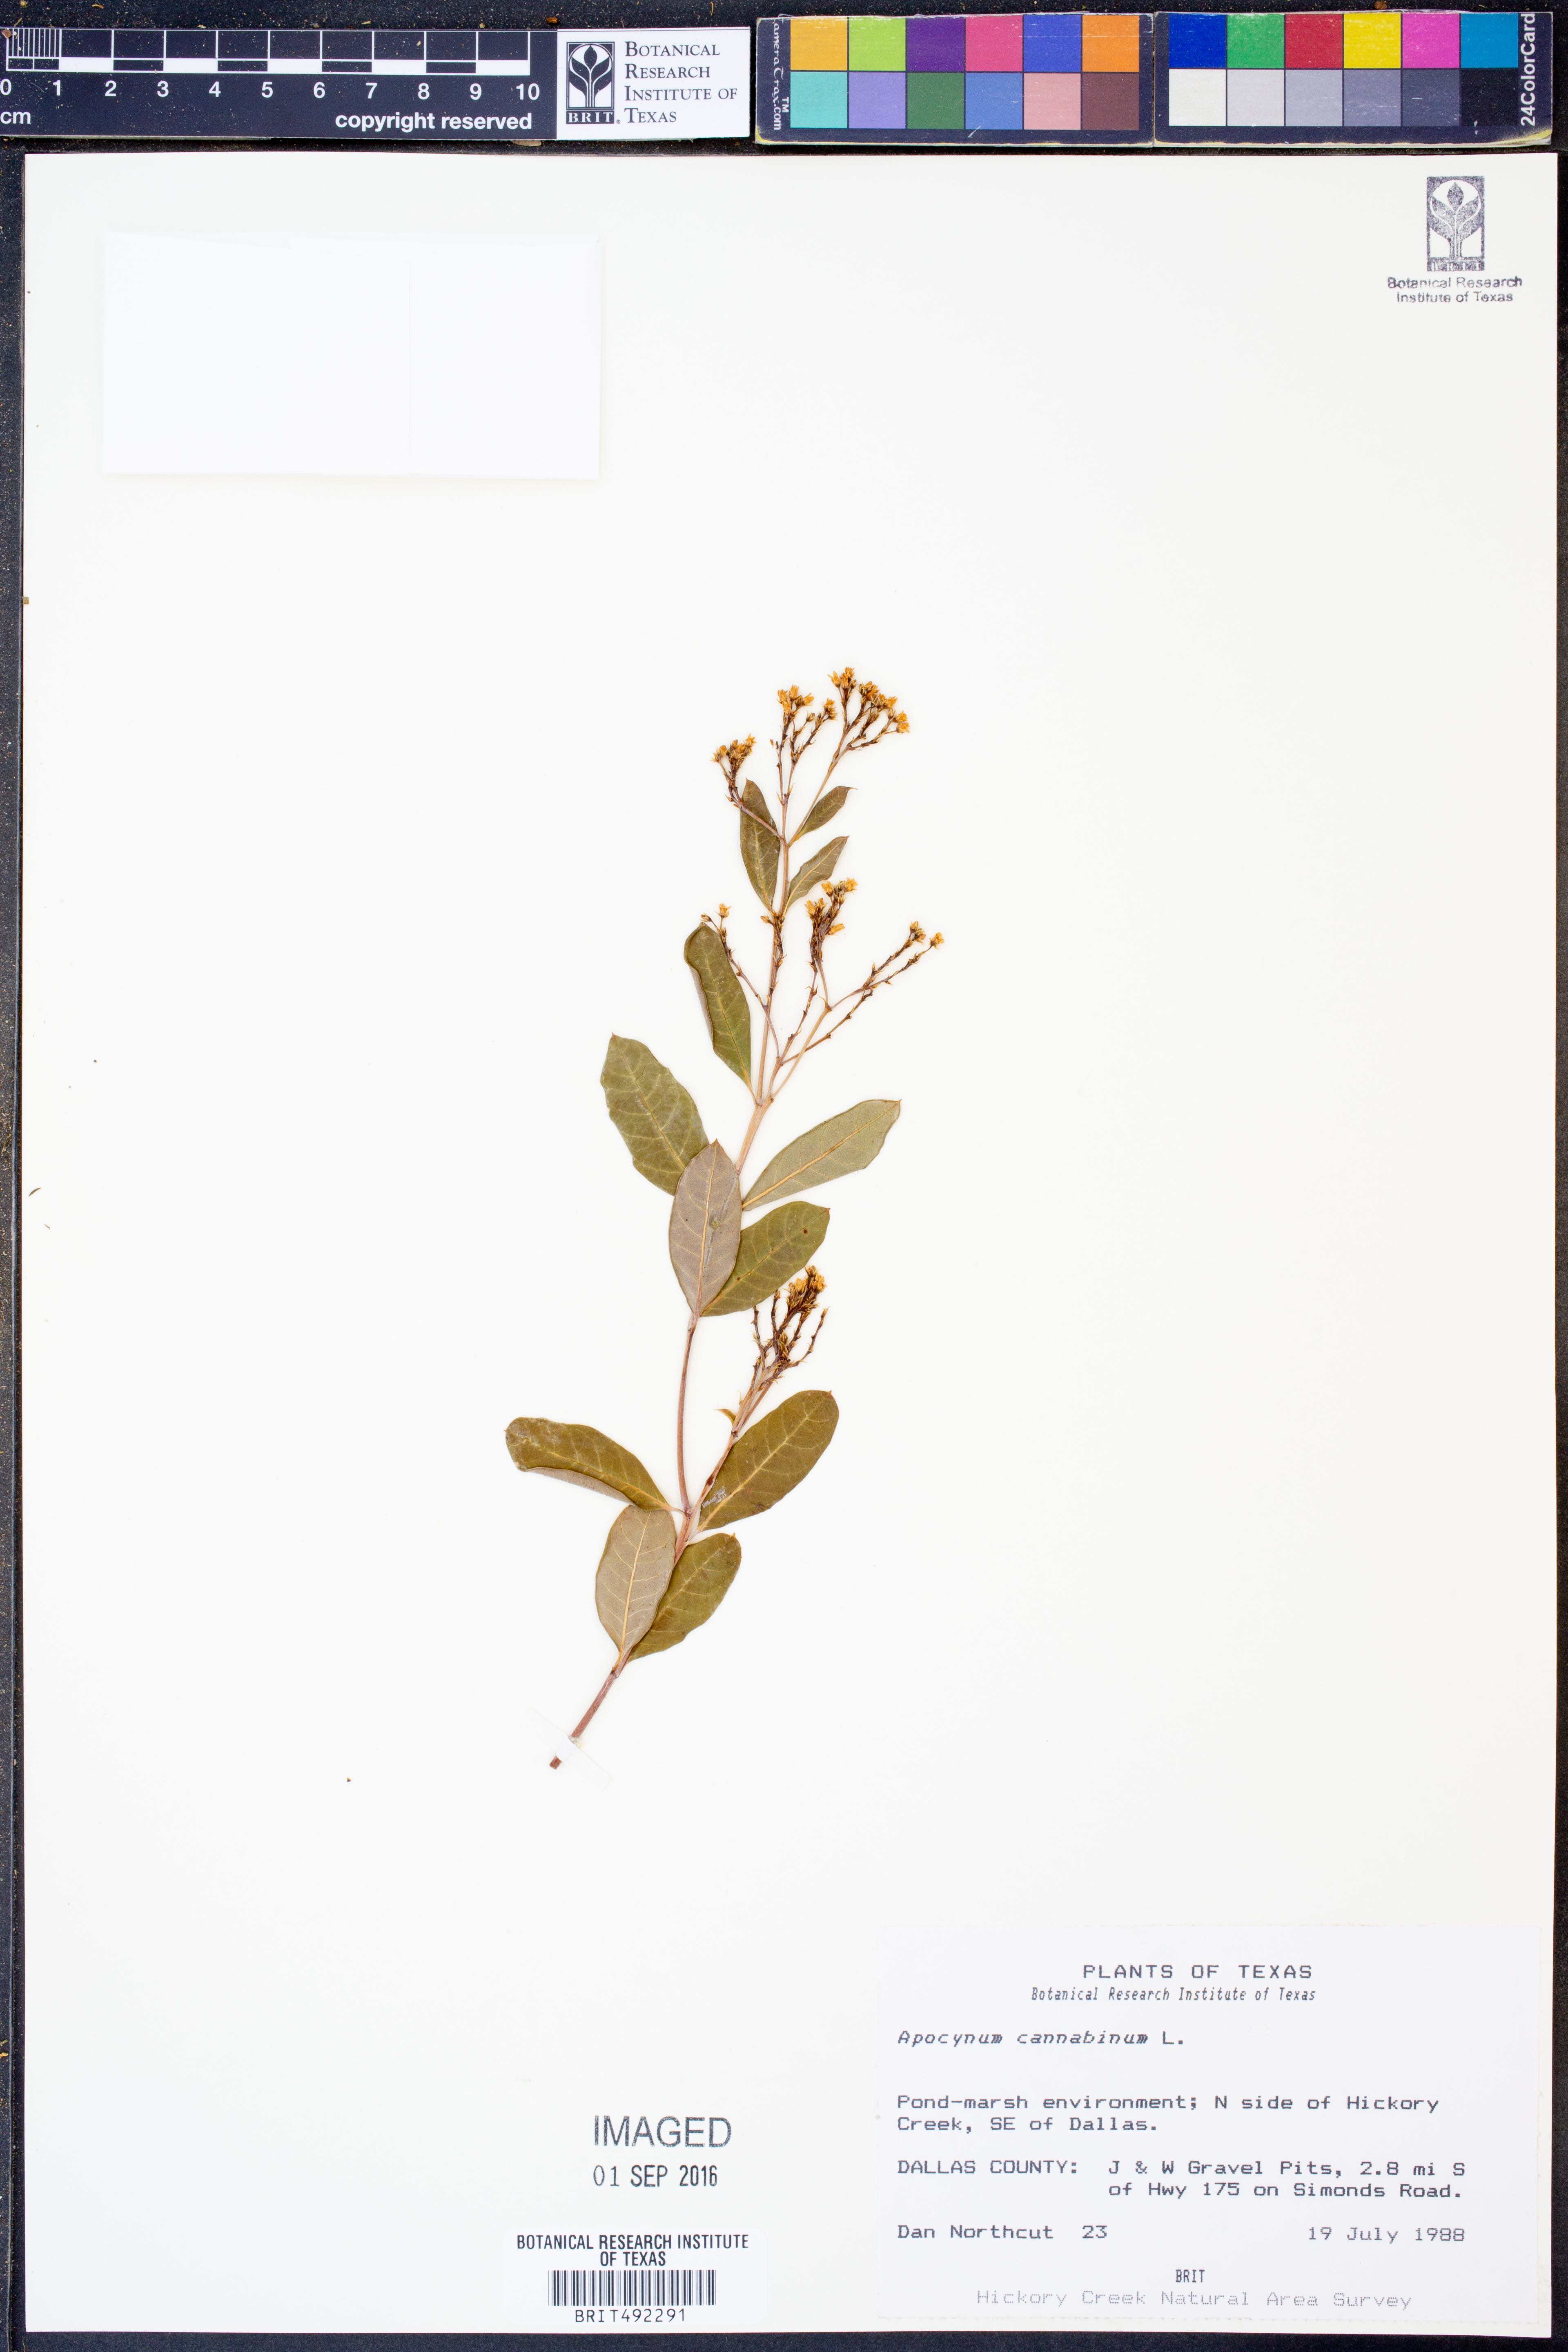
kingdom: Plantae
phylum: Tracheophyta
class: Magnoliopsida
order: Gentianales
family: Apocynaceae
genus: Apocynum
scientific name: Apocynum cannabinum
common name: Hemp dogbane
